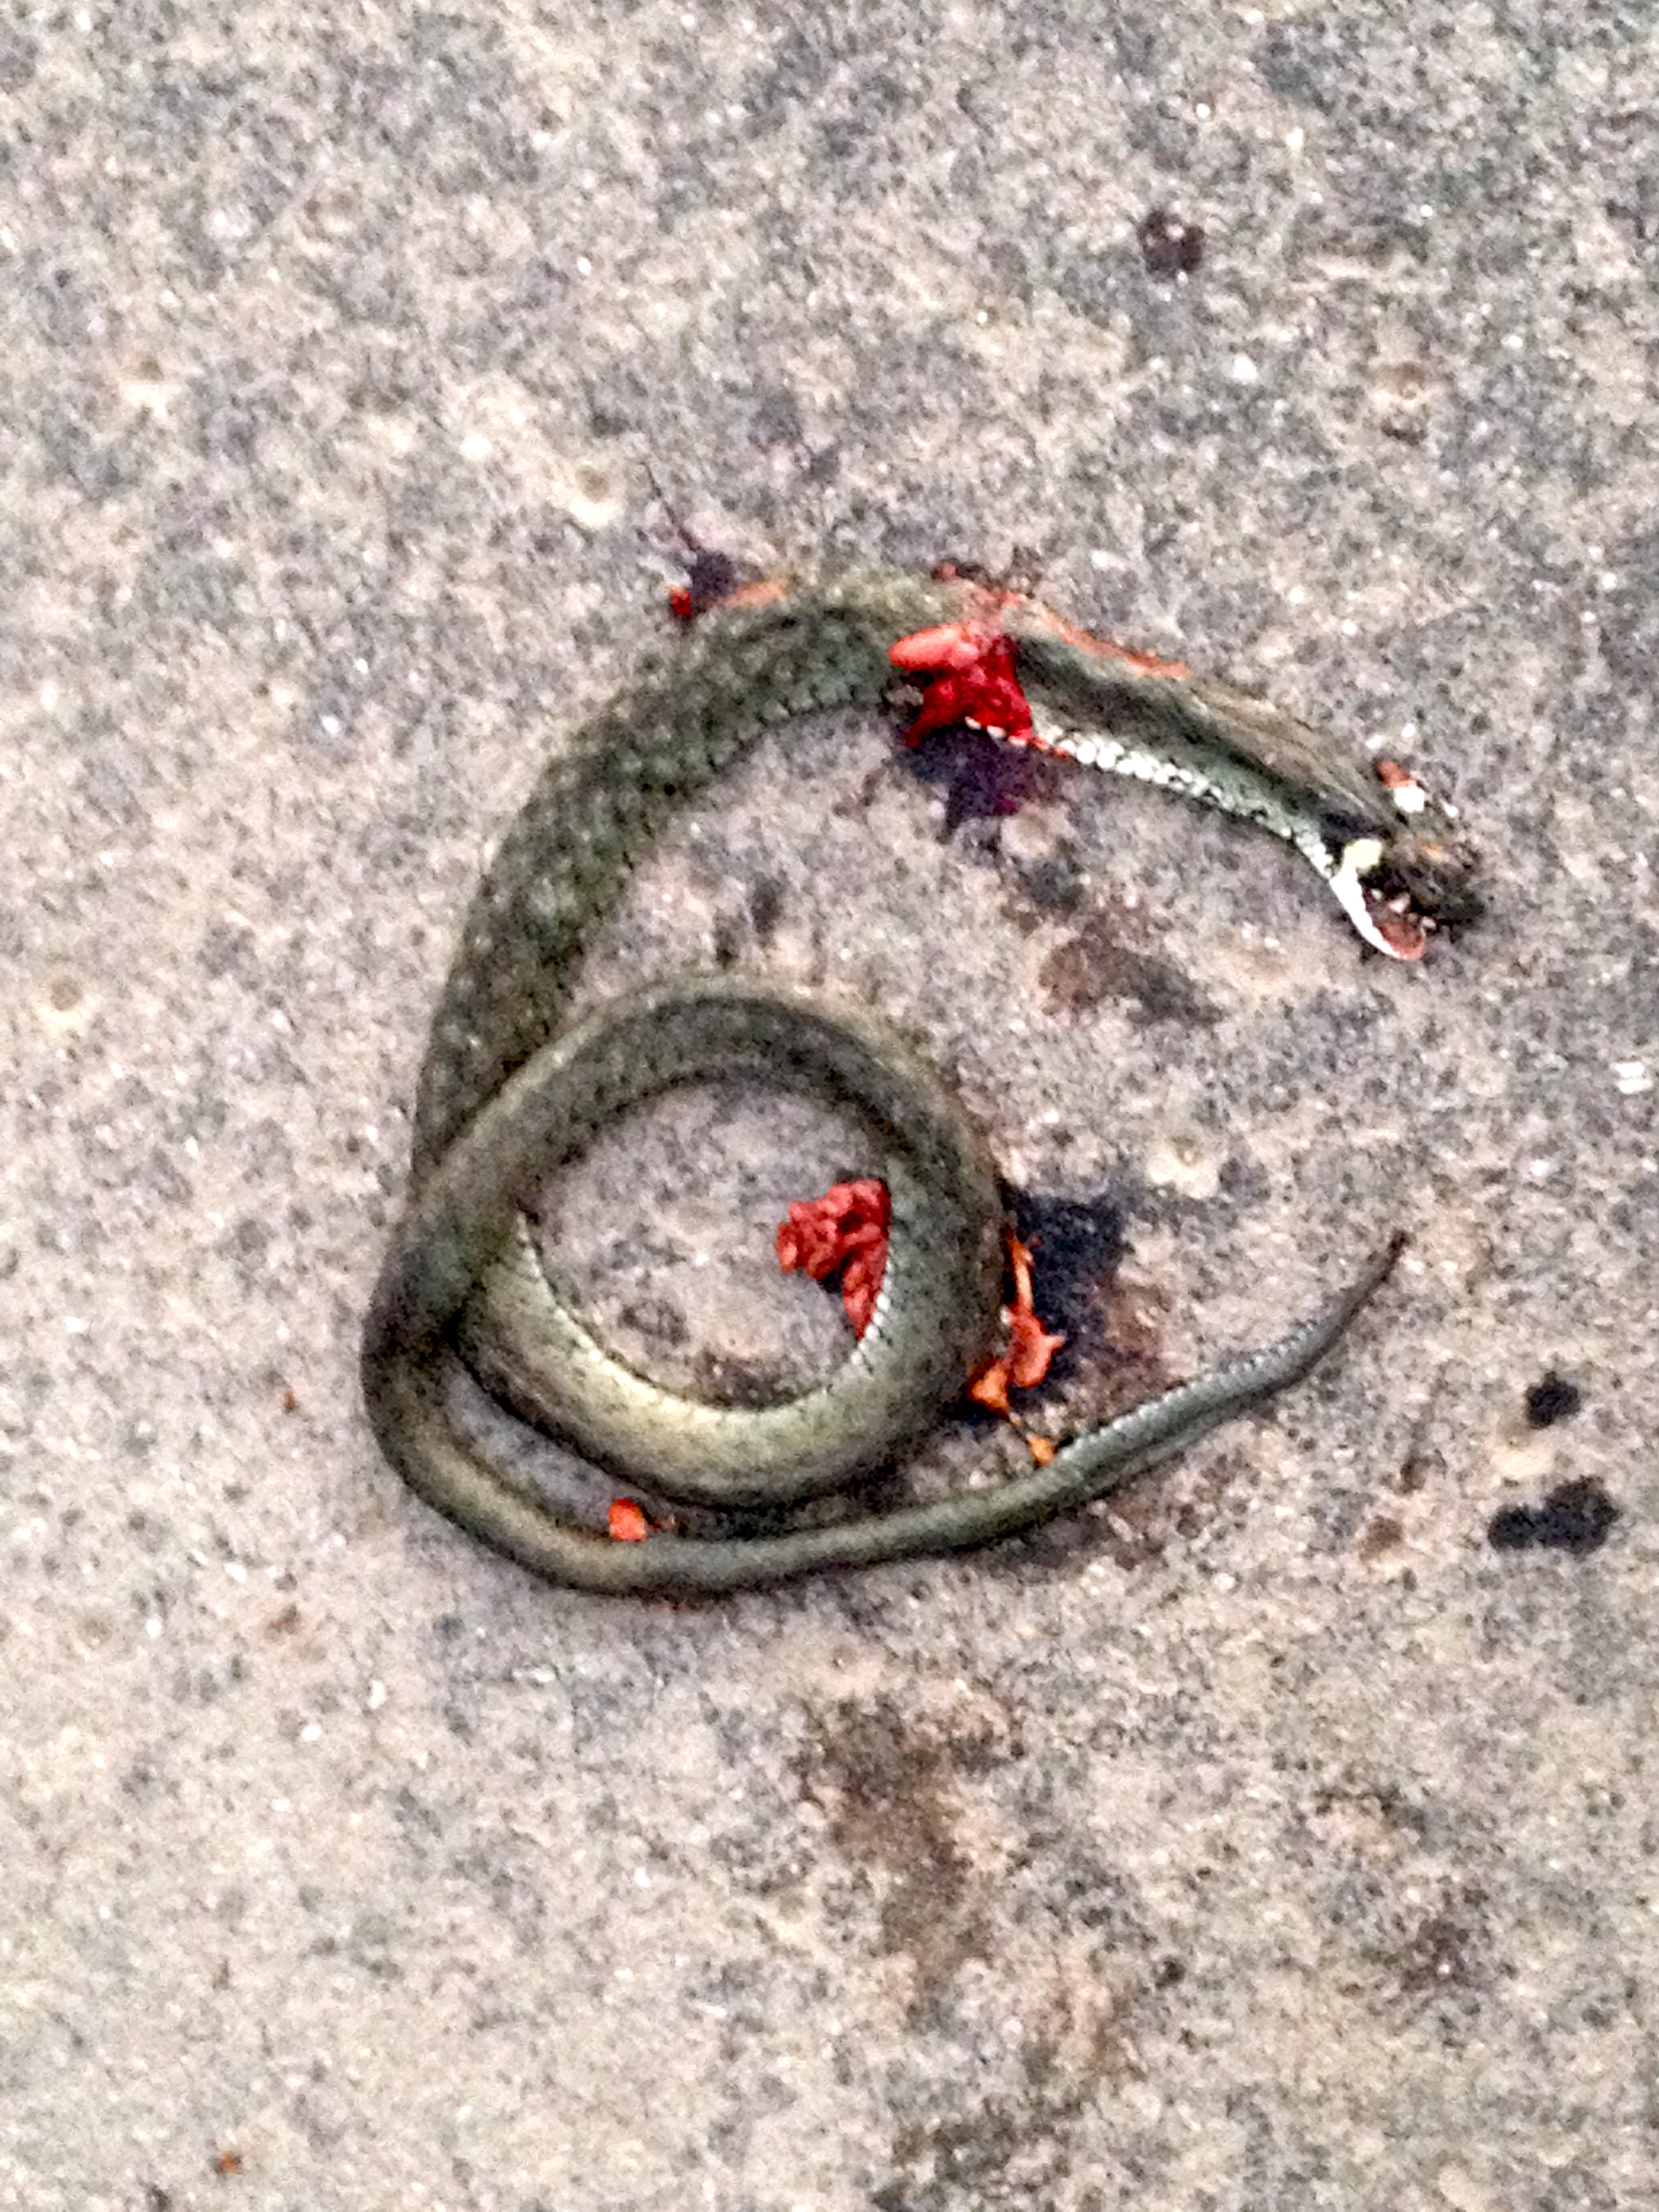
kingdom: Animalia
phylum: Chordata
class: Squamata
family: Colubridae
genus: Natrix
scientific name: Natrix natrix
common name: Grass snake
